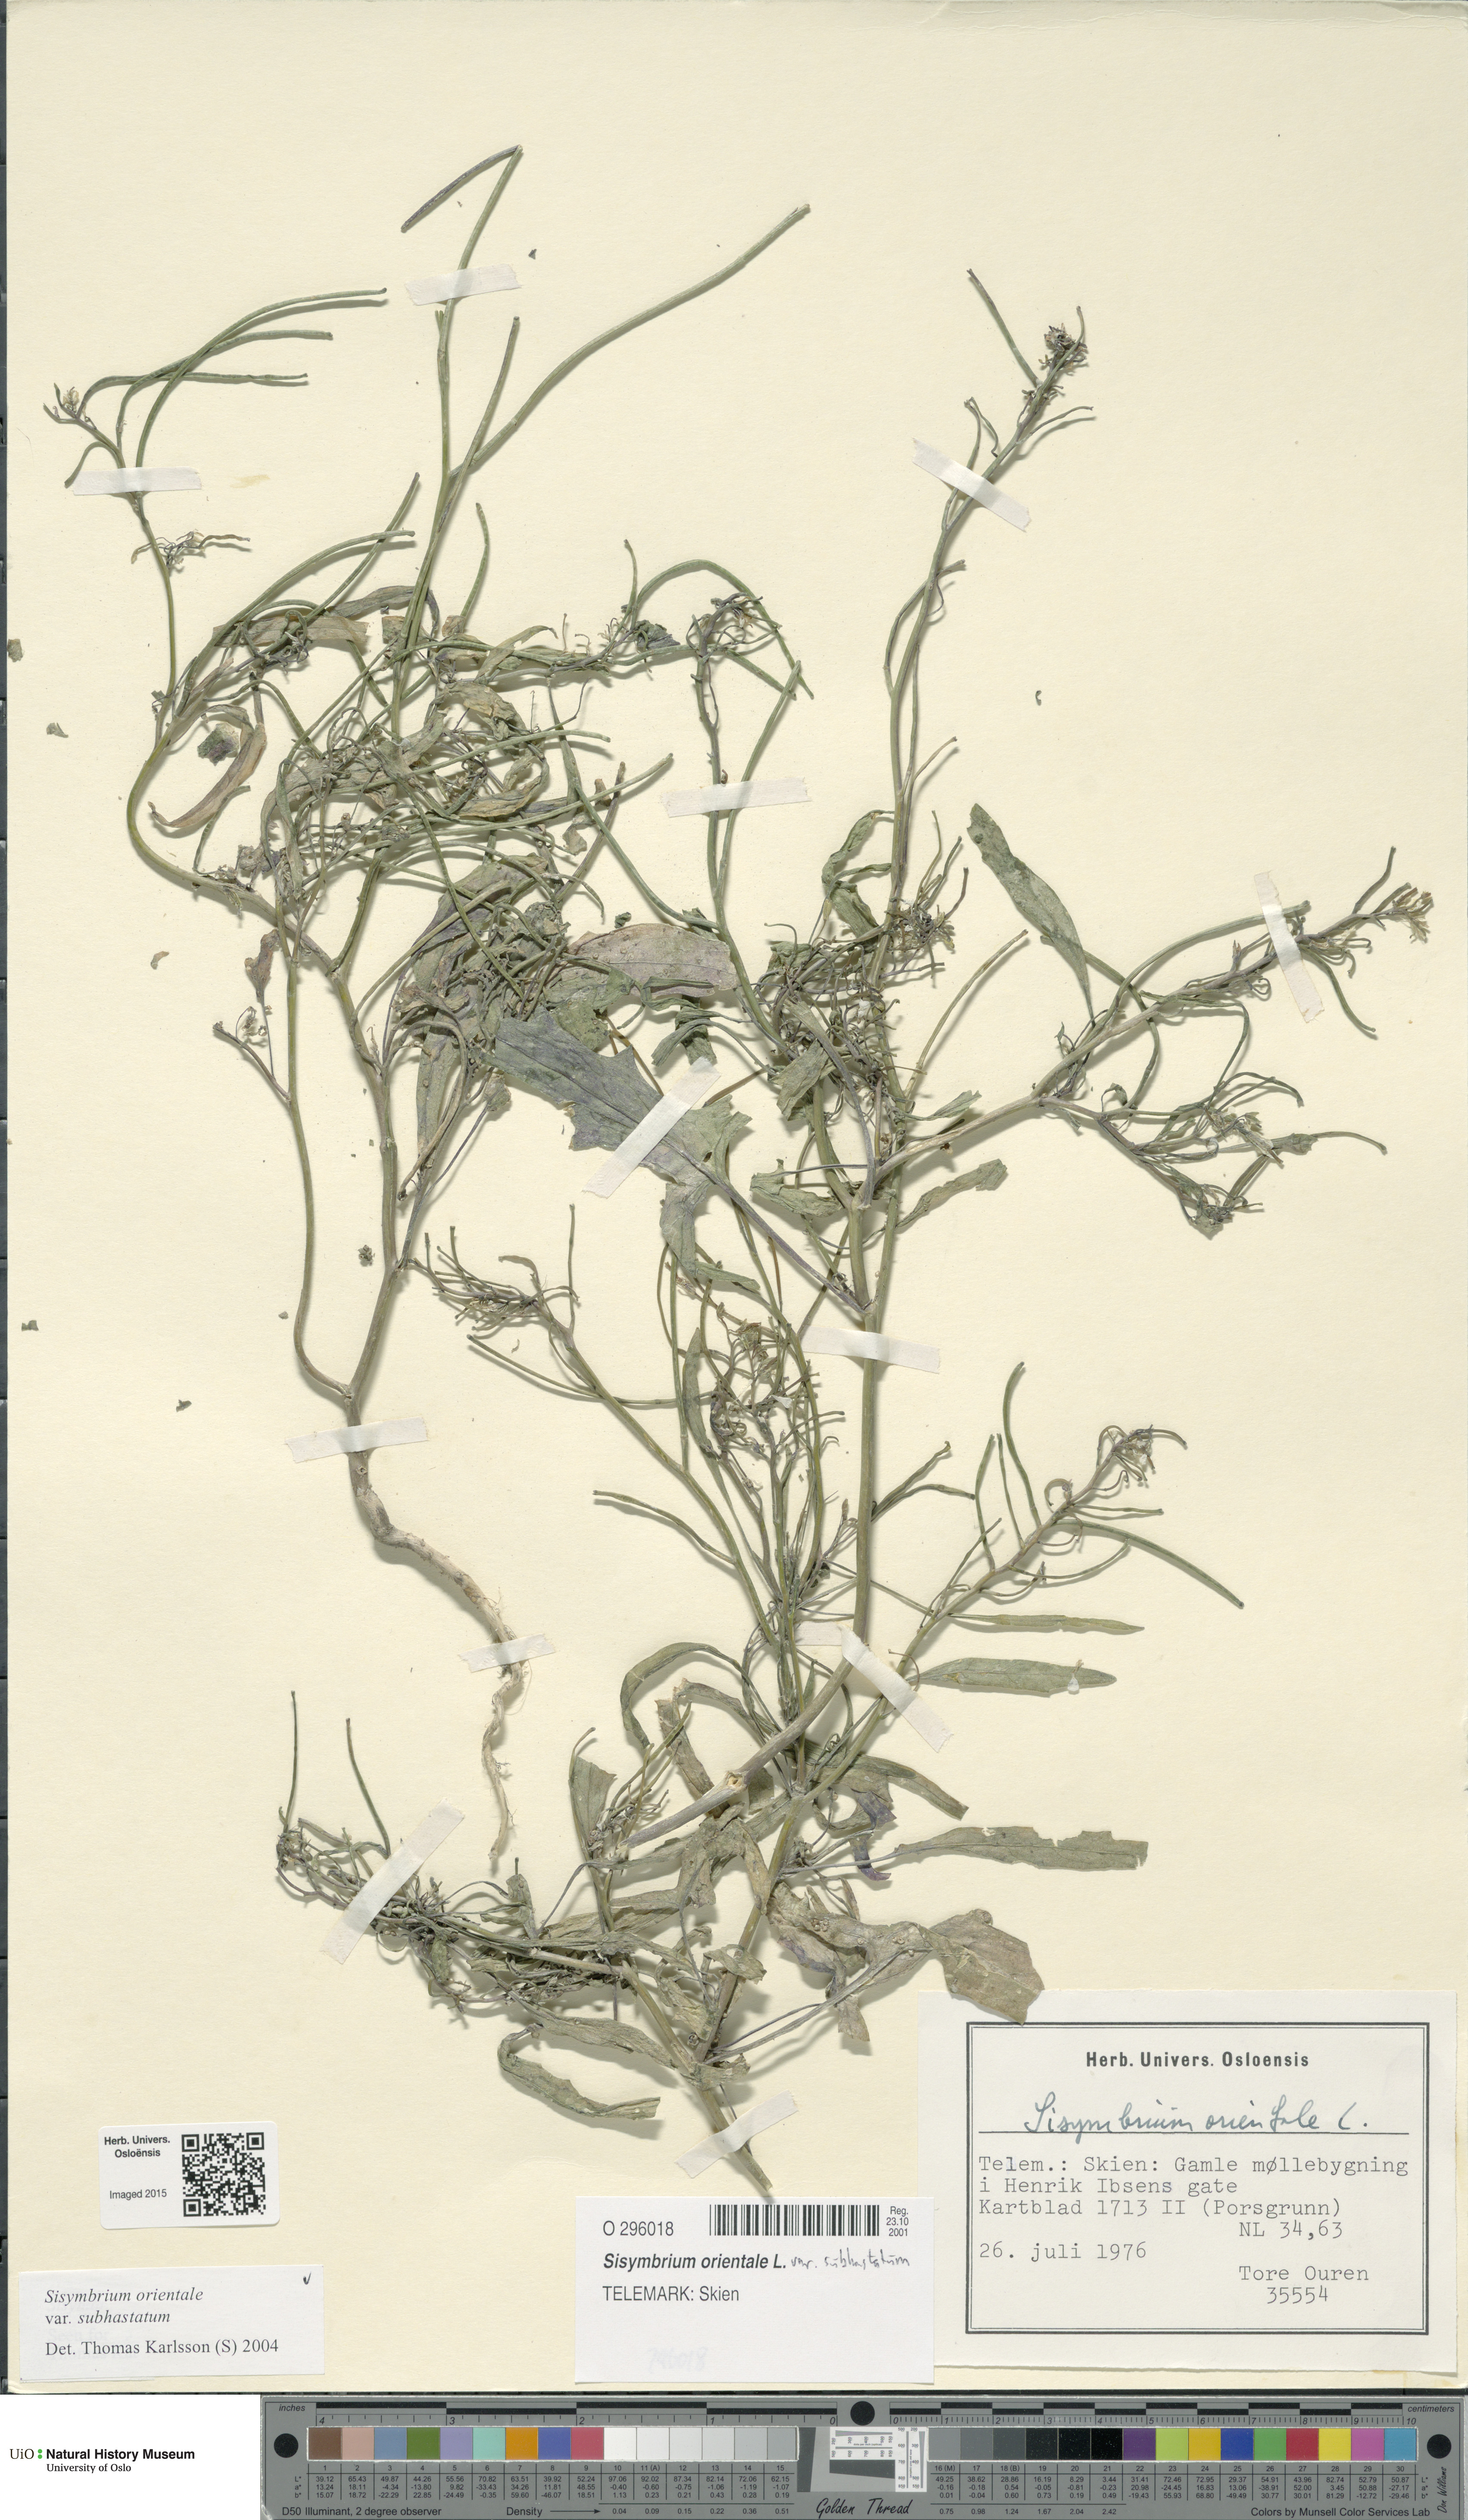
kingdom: Plantae
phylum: Tracheophyta
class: Magnoliopsida
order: Brassicales
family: Brassicaceae
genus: Sisymbrium
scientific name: Sisymbrium orientale
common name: Eastern rocket
